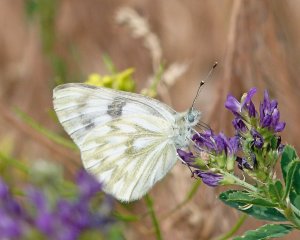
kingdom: Animalia
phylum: Arthropoda
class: Insecta
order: Lepidoptera
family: Pieridae
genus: Pontia
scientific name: Pontia occidentalis
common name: Western White
